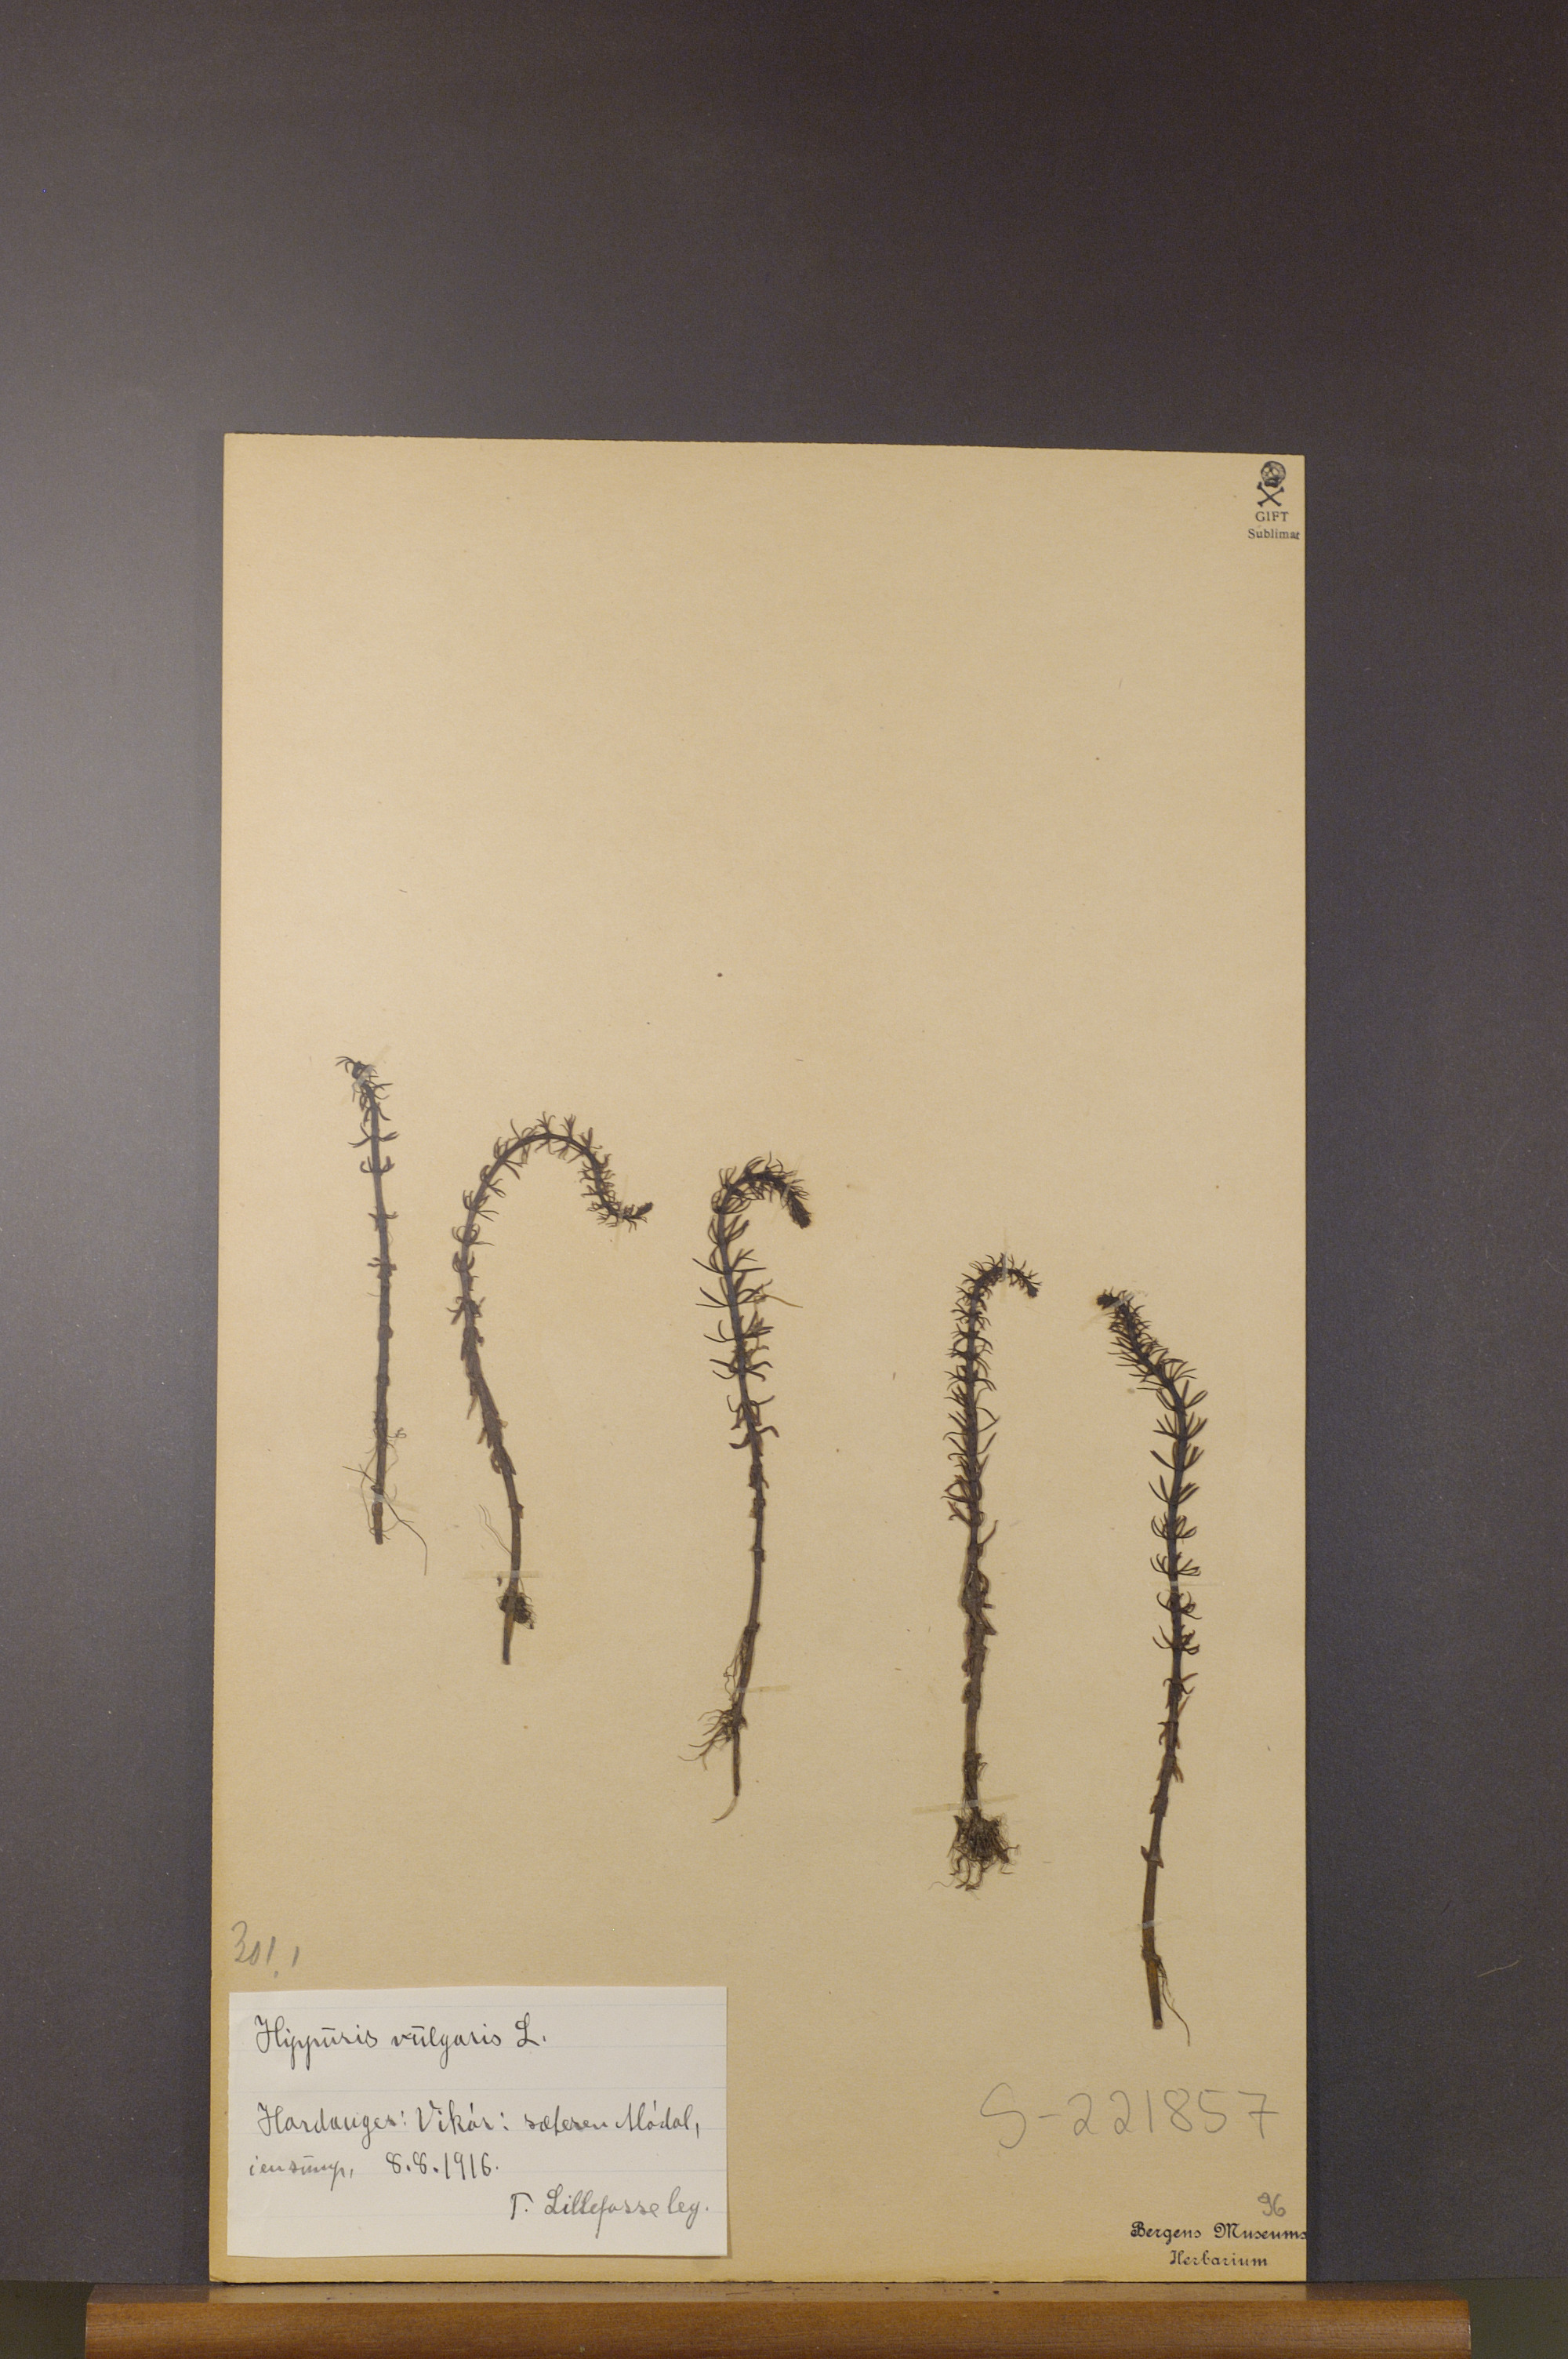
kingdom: Plantae
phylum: Tracheophyta
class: Magnoliopsida
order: Lamiales
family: Plantaginaceae
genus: Hippuris
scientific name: Hippuris vulgaris
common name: Mare's-tail
